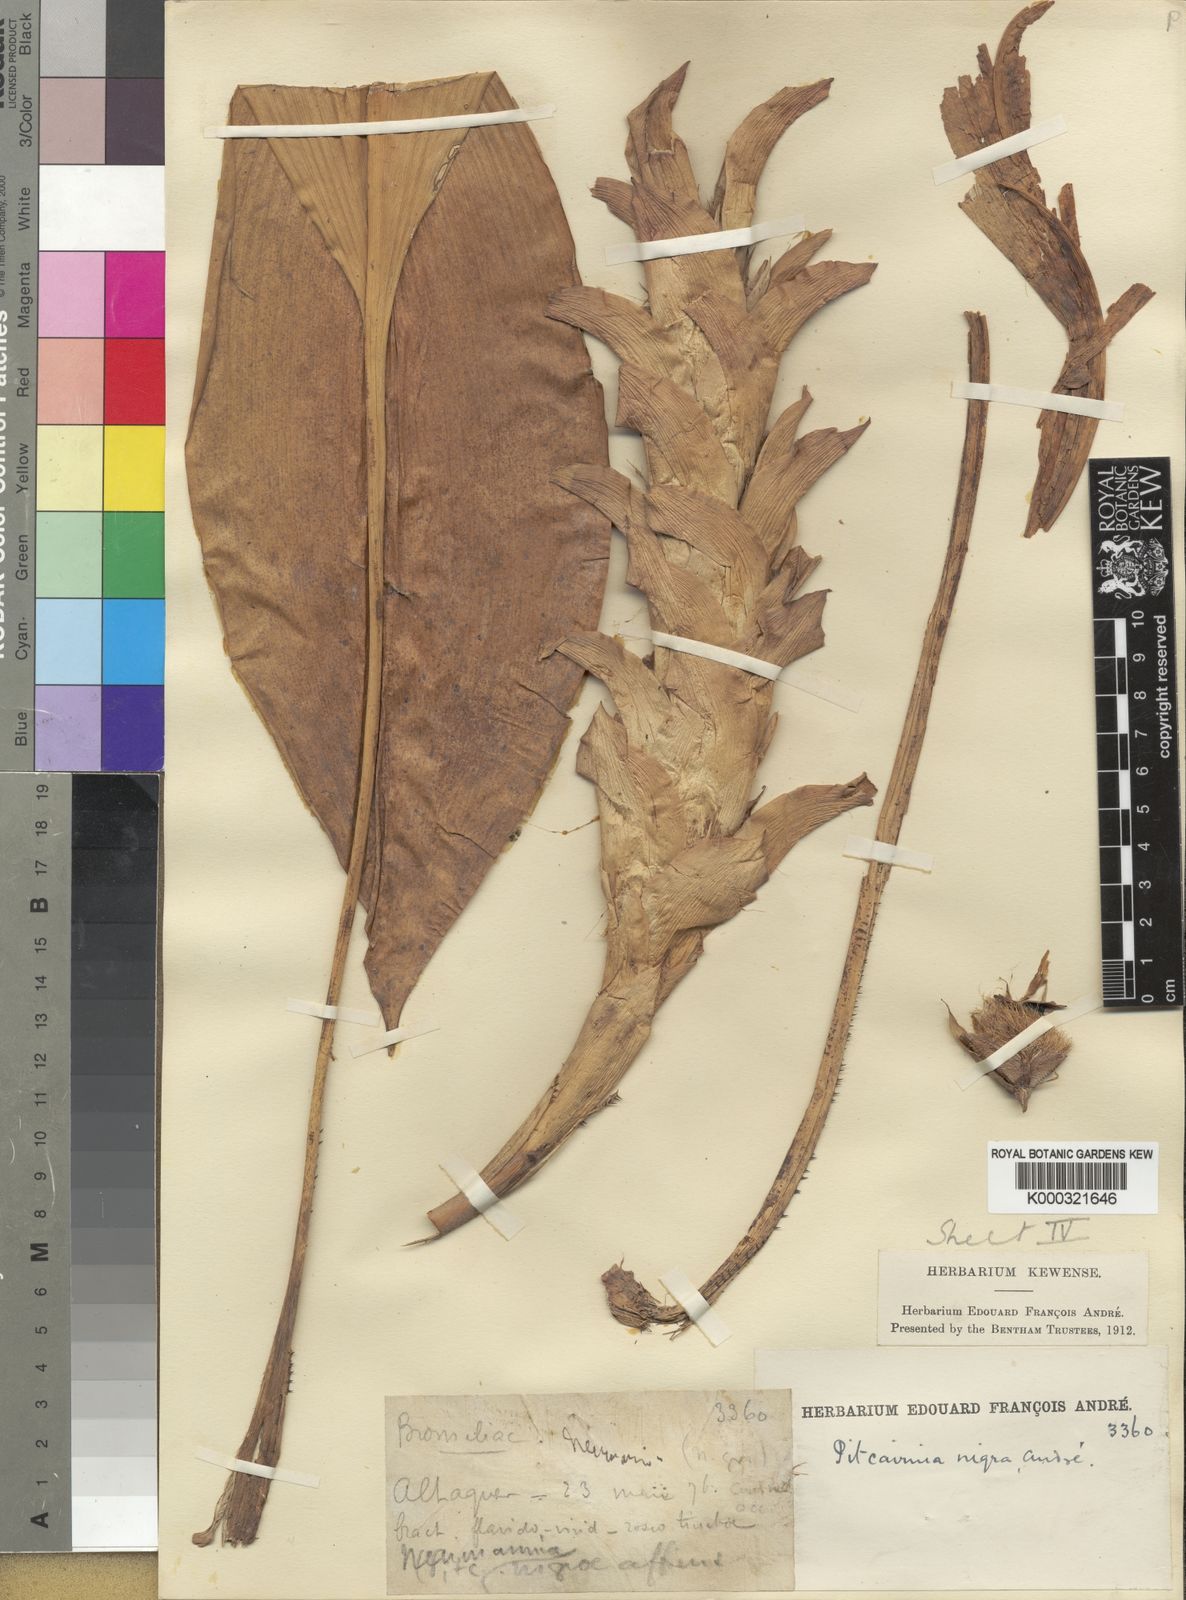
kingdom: Plantae
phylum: Tracheophyta
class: Liliopsida
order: Poales
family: Bromeliaceae
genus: Pitcairnia
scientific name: Pitcairnia
